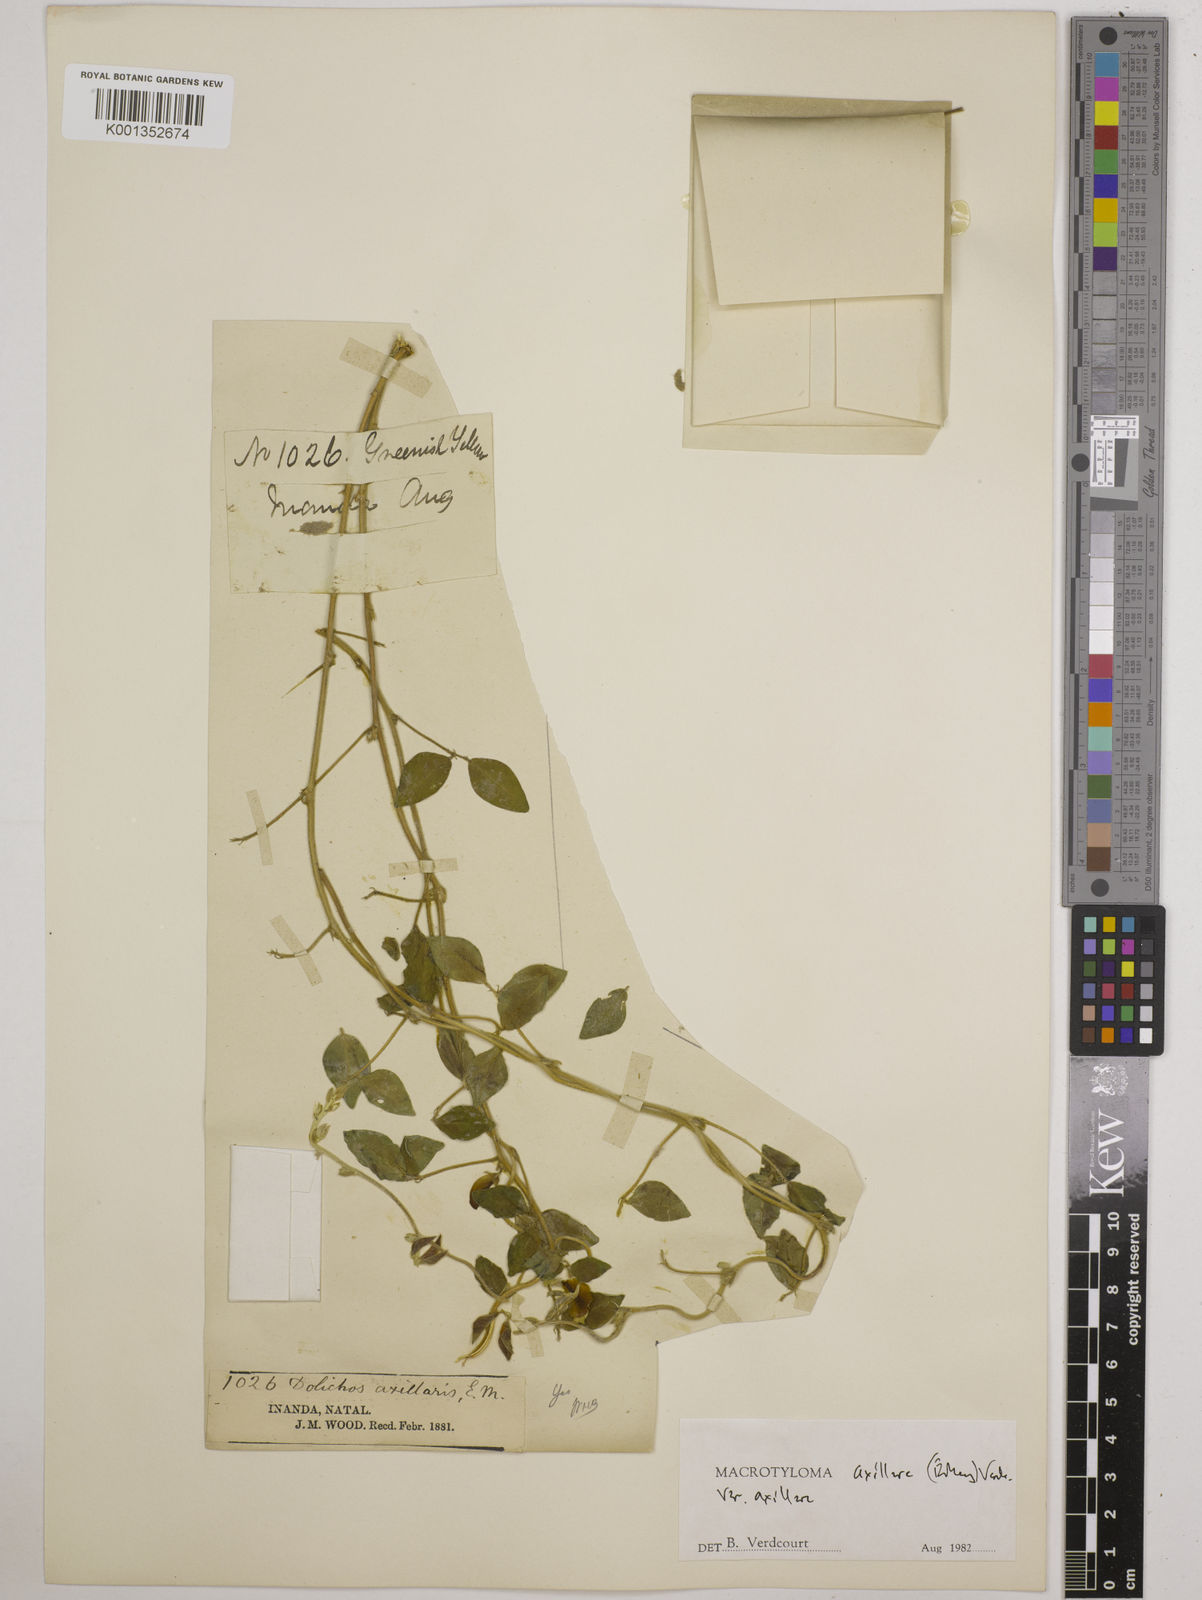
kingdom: Plantae
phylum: Tracheophyta
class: Magnoliopsida
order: Fabales
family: Fabaceae
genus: Macrotyloma
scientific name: Macrotyloma axillare
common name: Perennial horsegram
